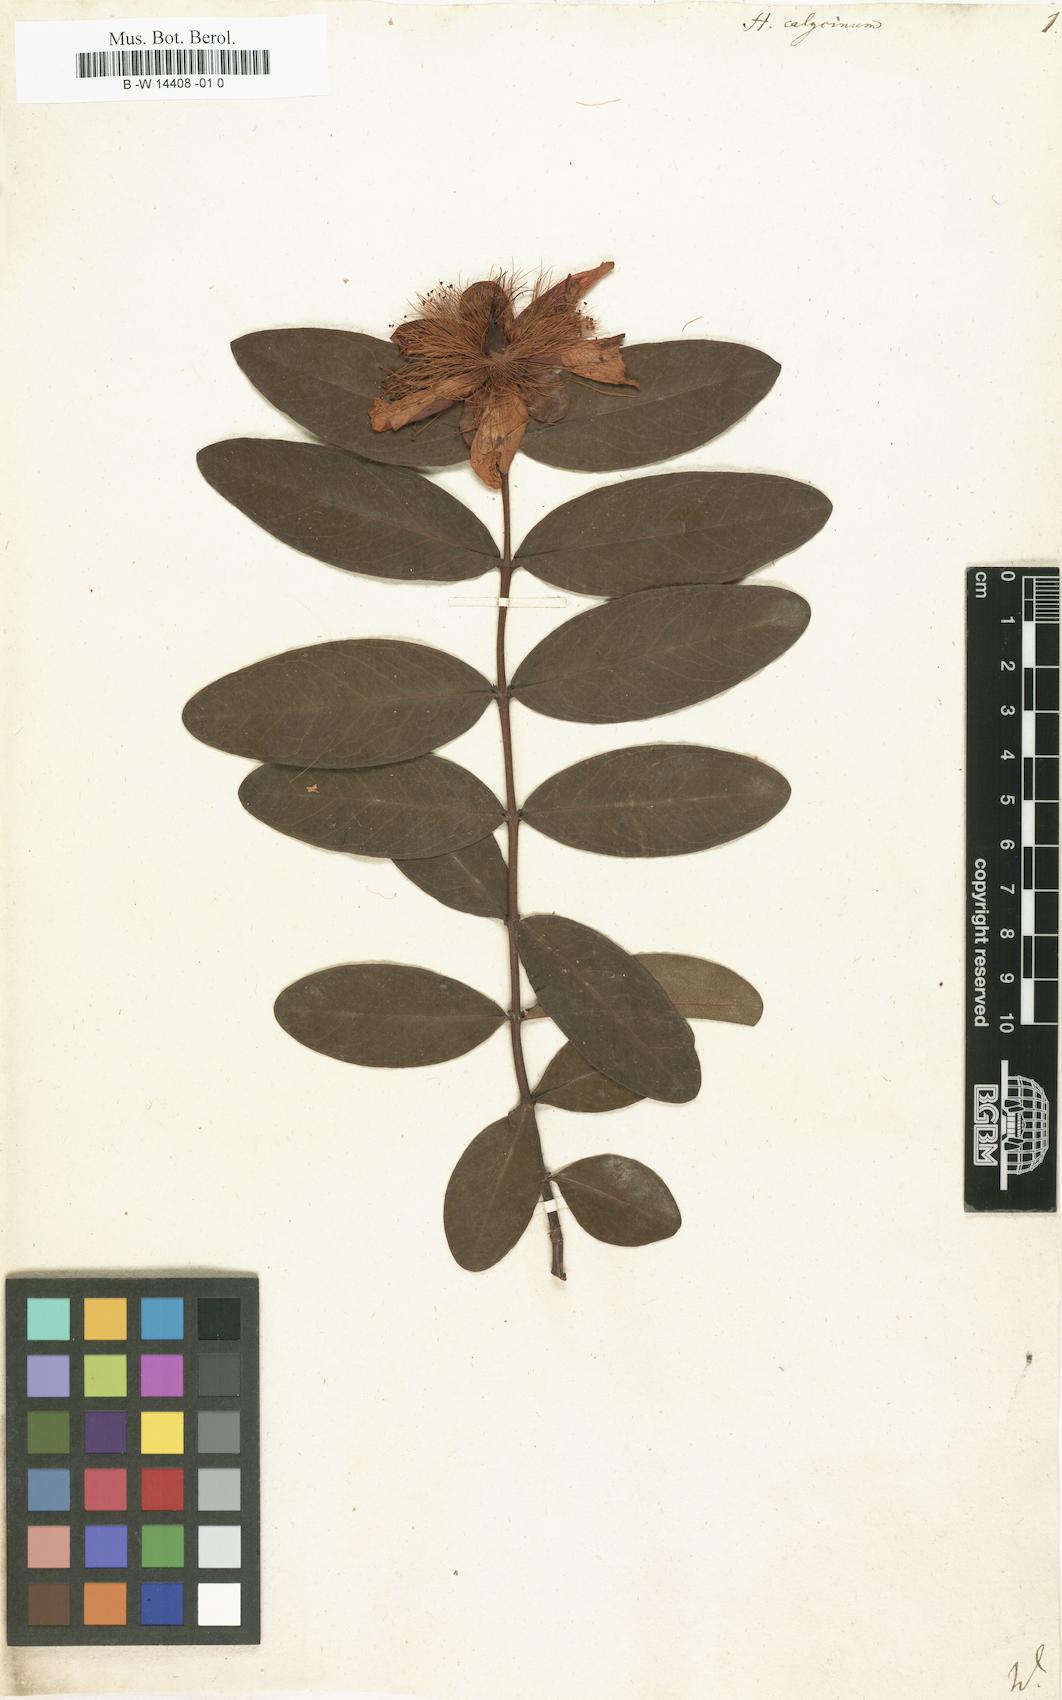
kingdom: Plantae
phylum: Tracheophyta
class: Magnoliopsida
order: Malpighiales
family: Hypericaceae
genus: Hypericum
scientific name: Hypericum calycinum
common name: Rose-of-sharon
